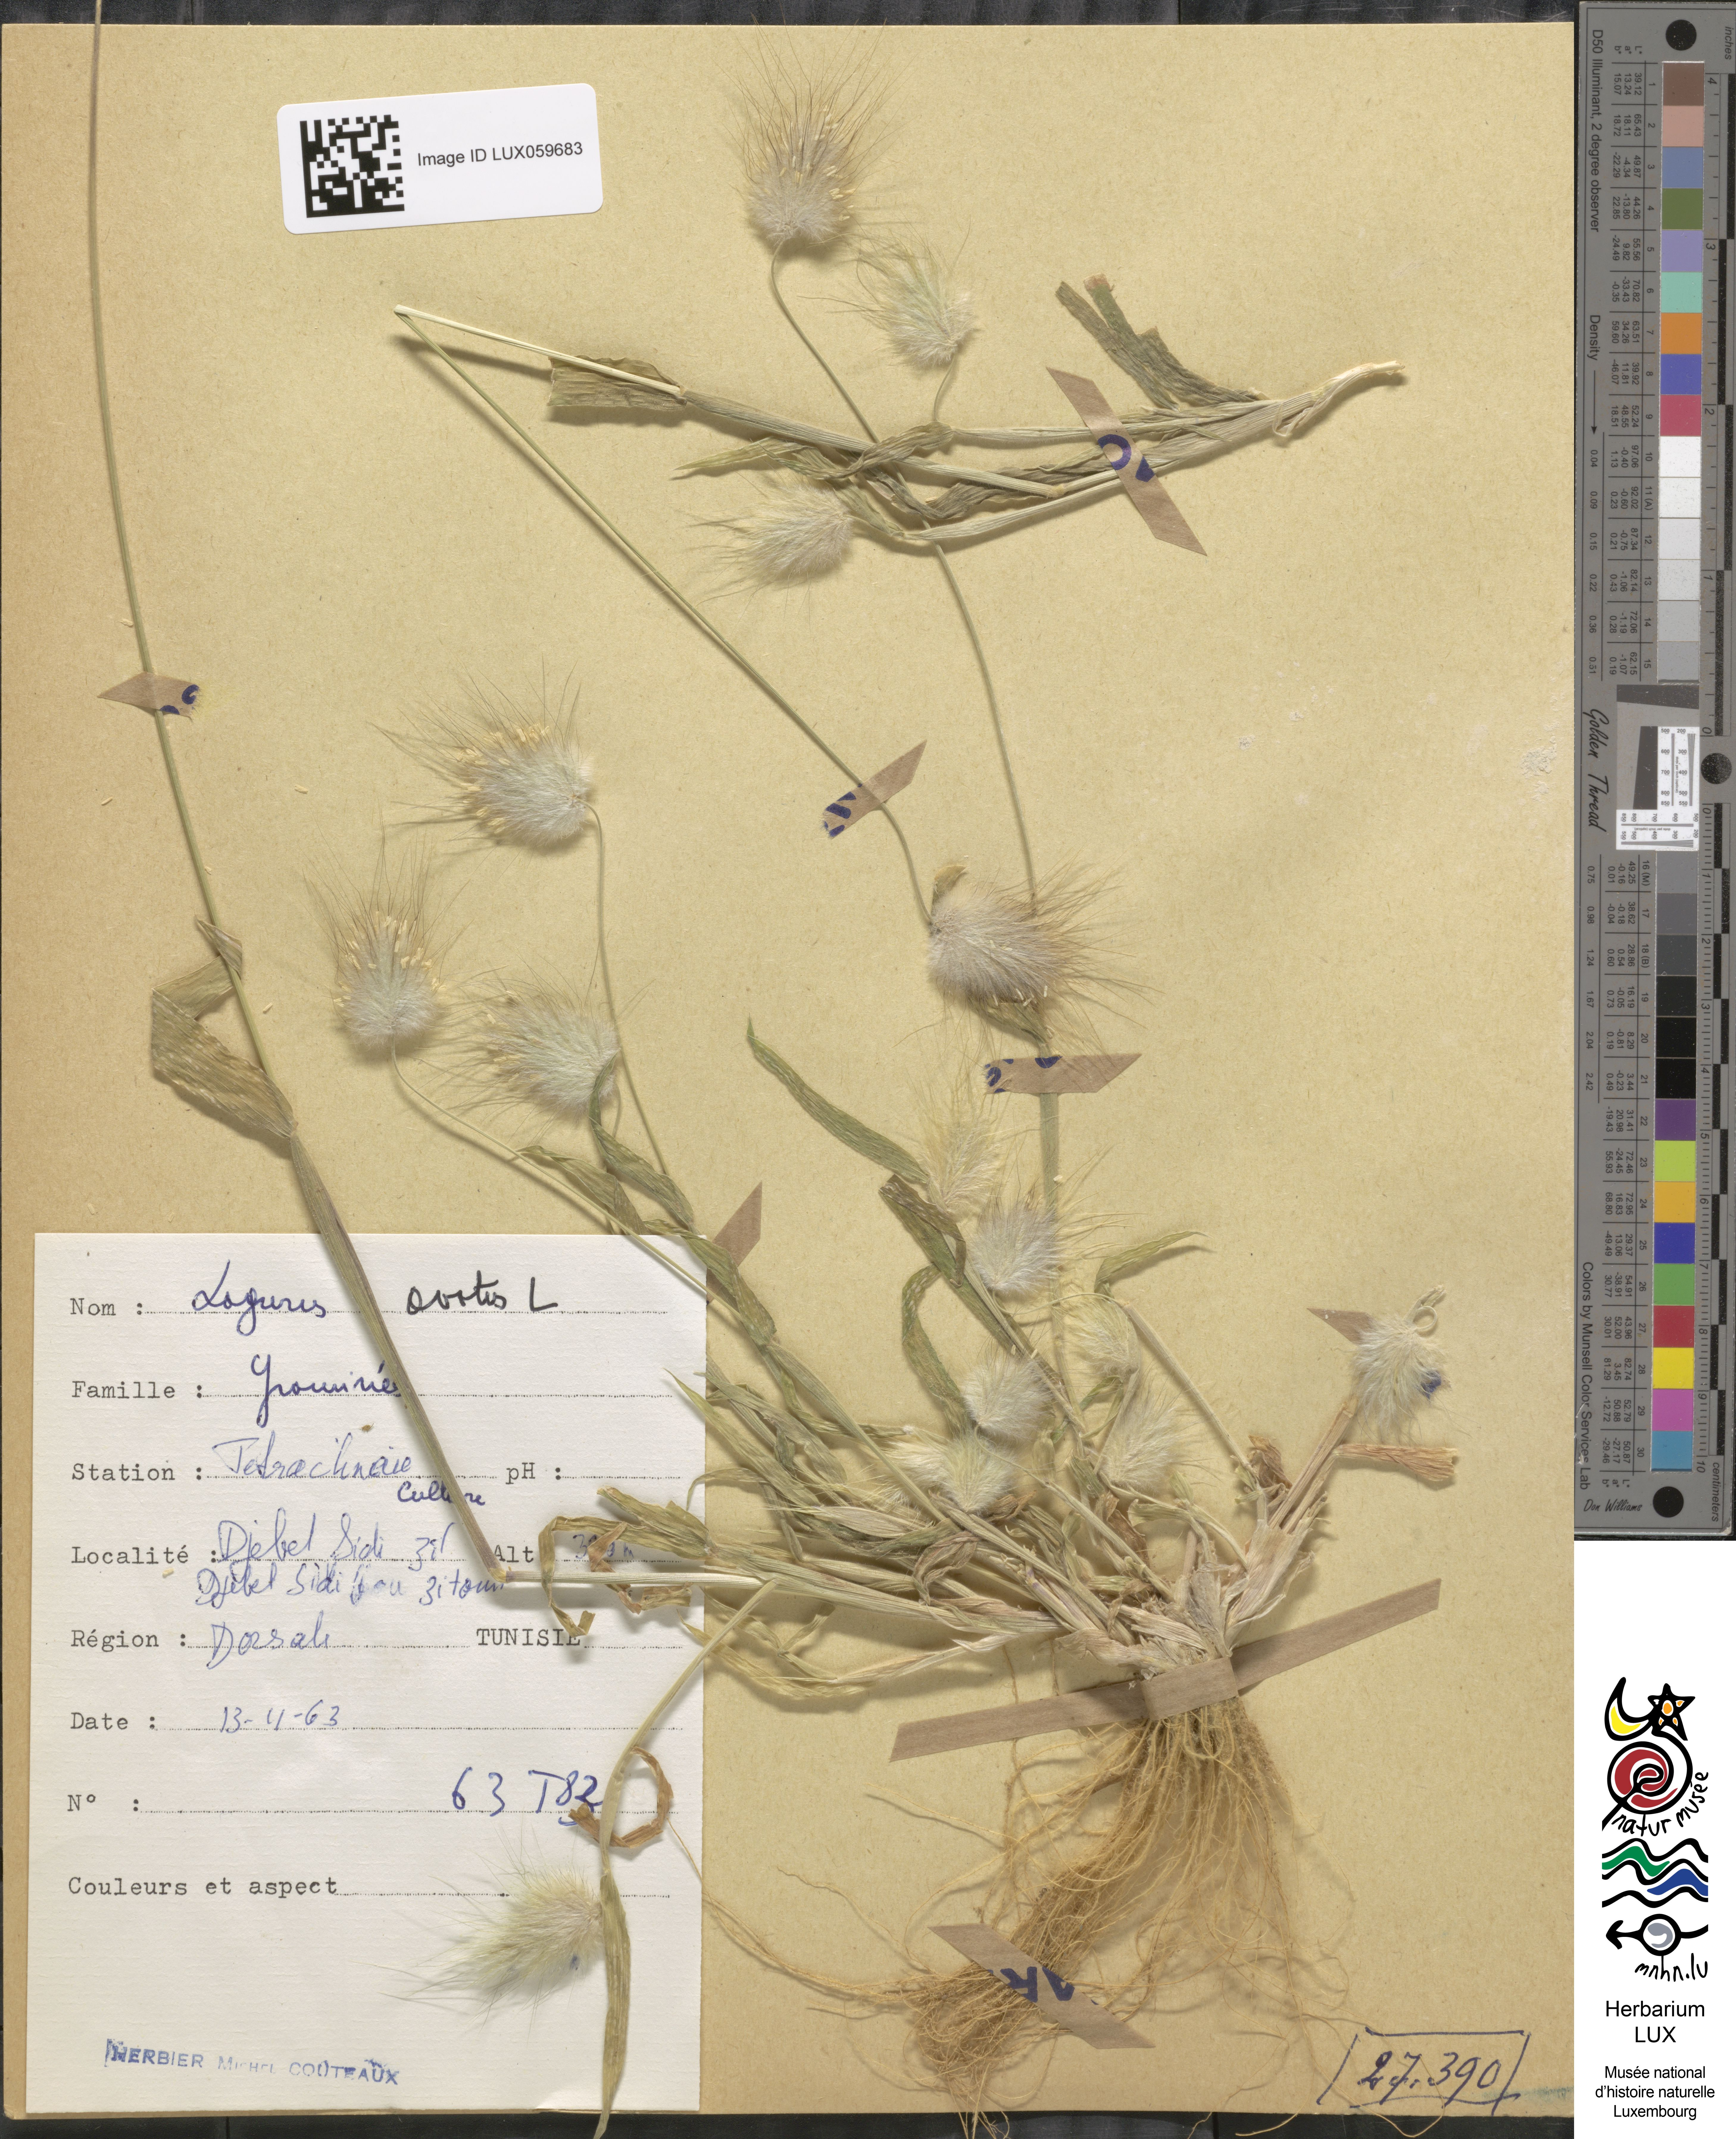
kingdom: Plantae
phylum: Tracheophyta
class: Liliopsida
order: Poales
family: Poaceae
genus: Lagurus
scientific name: Lagurus ovatus
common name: Hare's-tail
